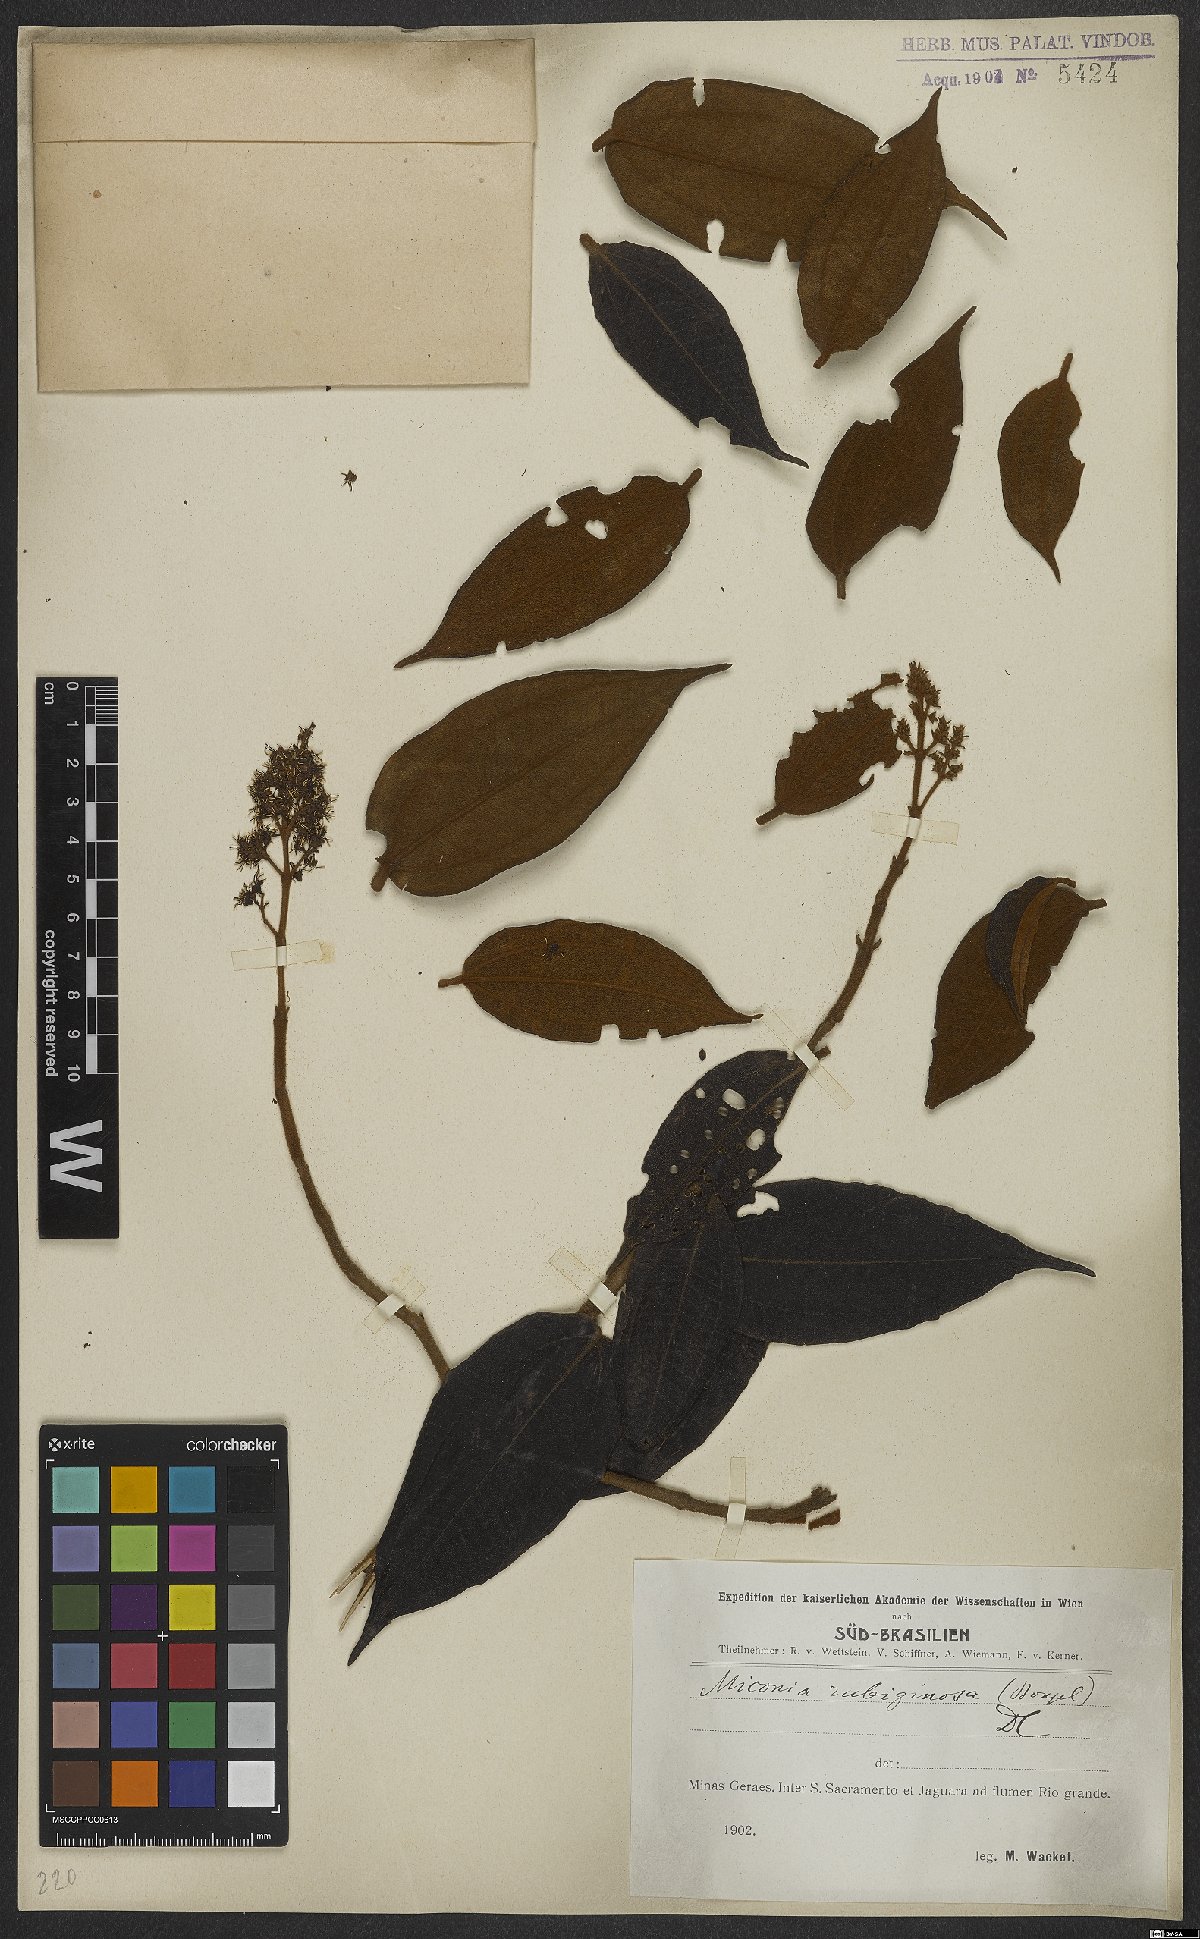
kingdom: Plantae
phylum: Tracheophyta
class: Magnoliopsida
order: Myrtales
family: Melastomataceae
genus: Miconia
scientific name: Miconia rubiginosa
